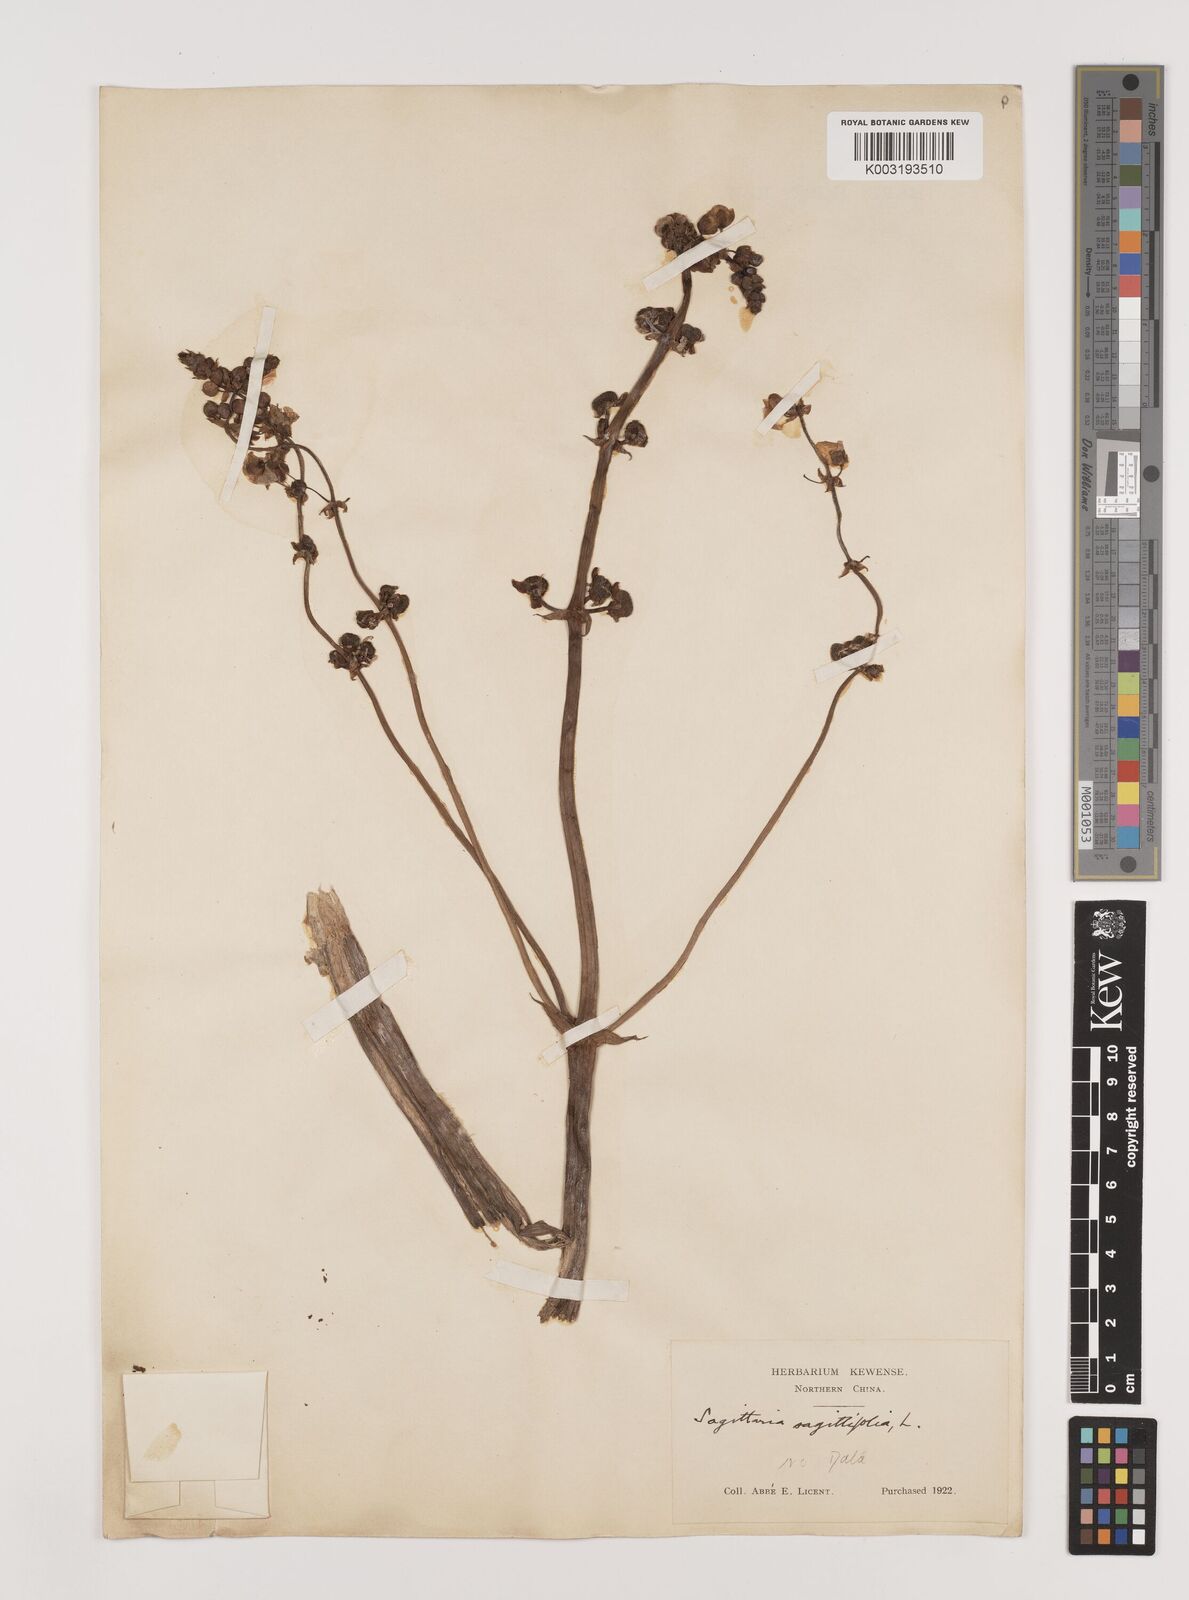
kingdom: Plantae
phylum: Tracheophyta
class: Liliopsida
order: Alismatales
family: Alismataceae
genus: Sagittaria
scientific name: Sagittaria sagittifolia
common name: Arrowhead
